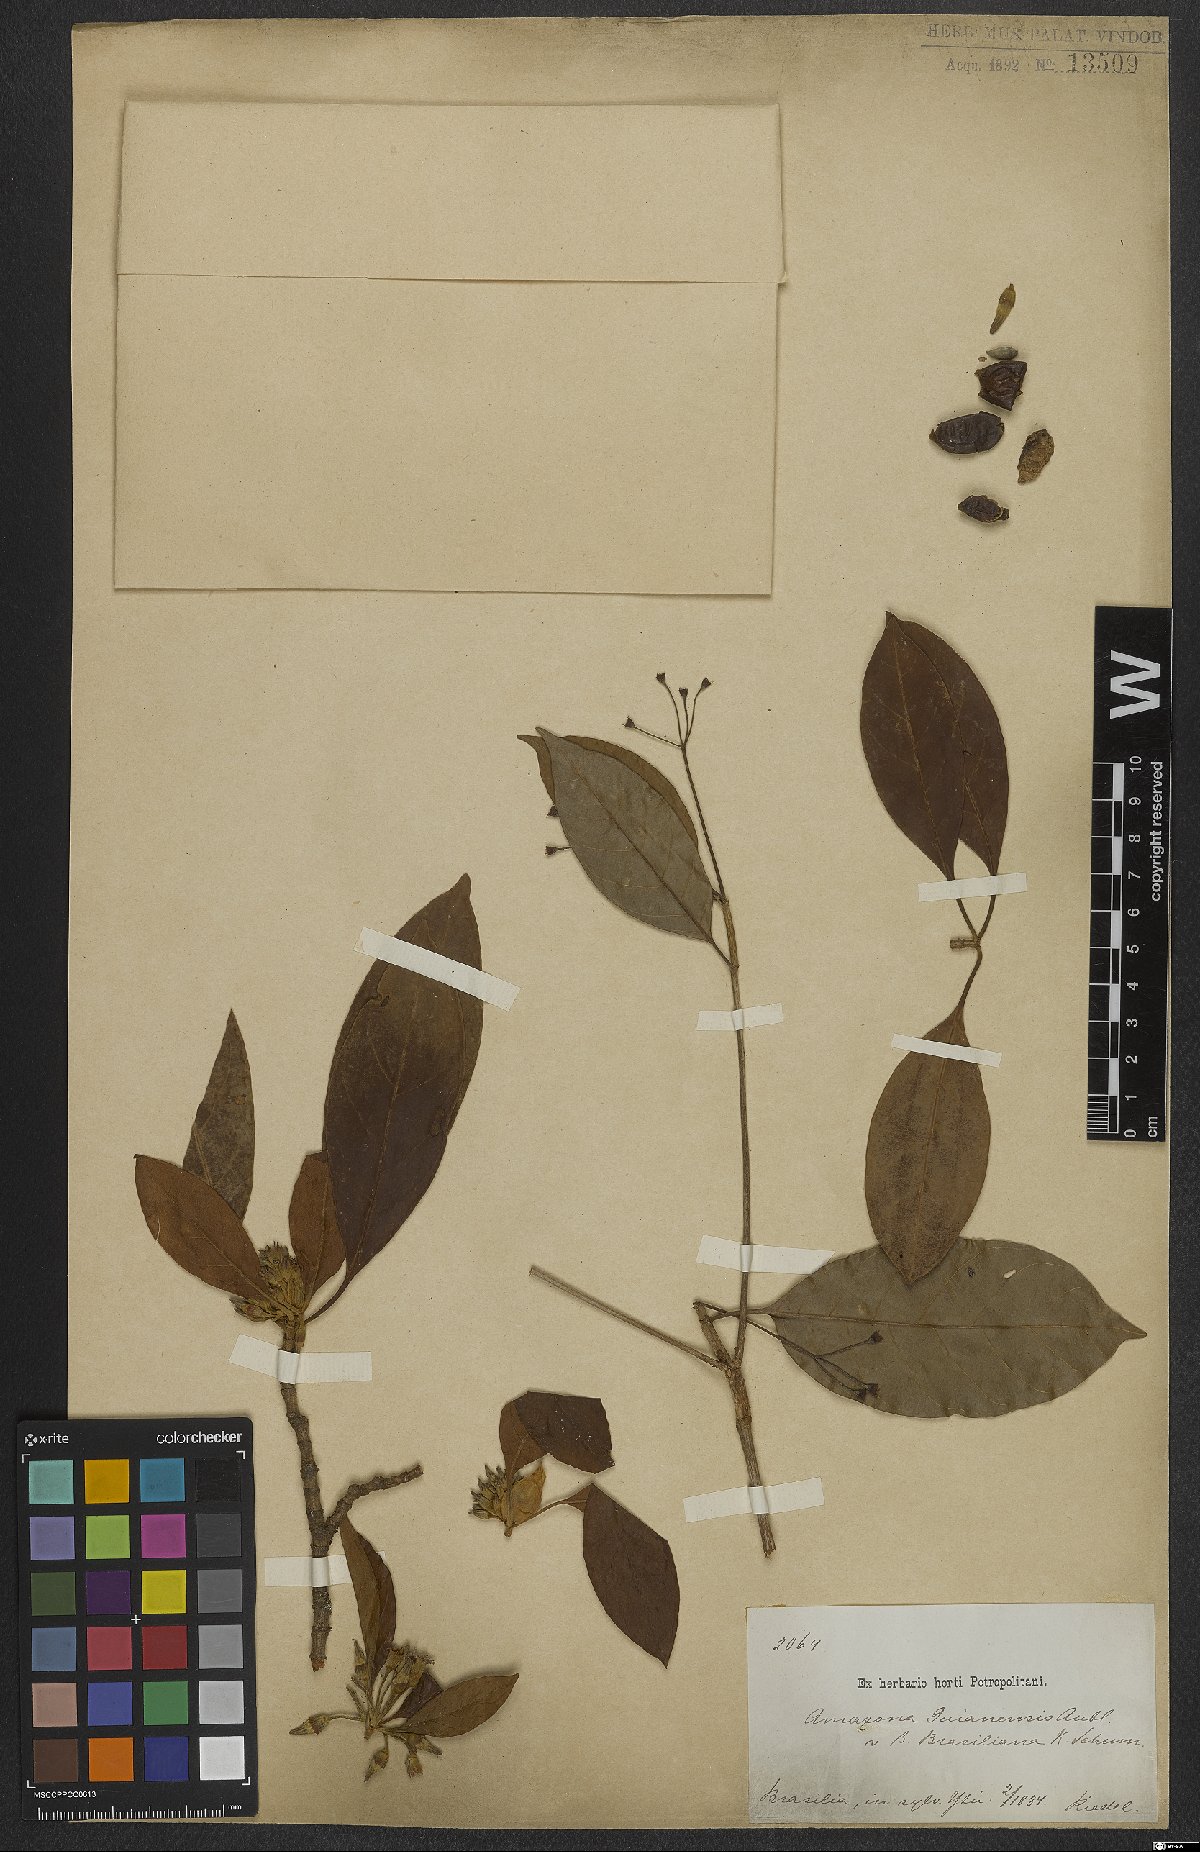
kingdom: Plantae
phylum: Tracheophyta
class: Magnoliopsida
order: Gentianales
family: Rubiaceae
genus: Amaioua
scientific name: Amaioua guianensis
